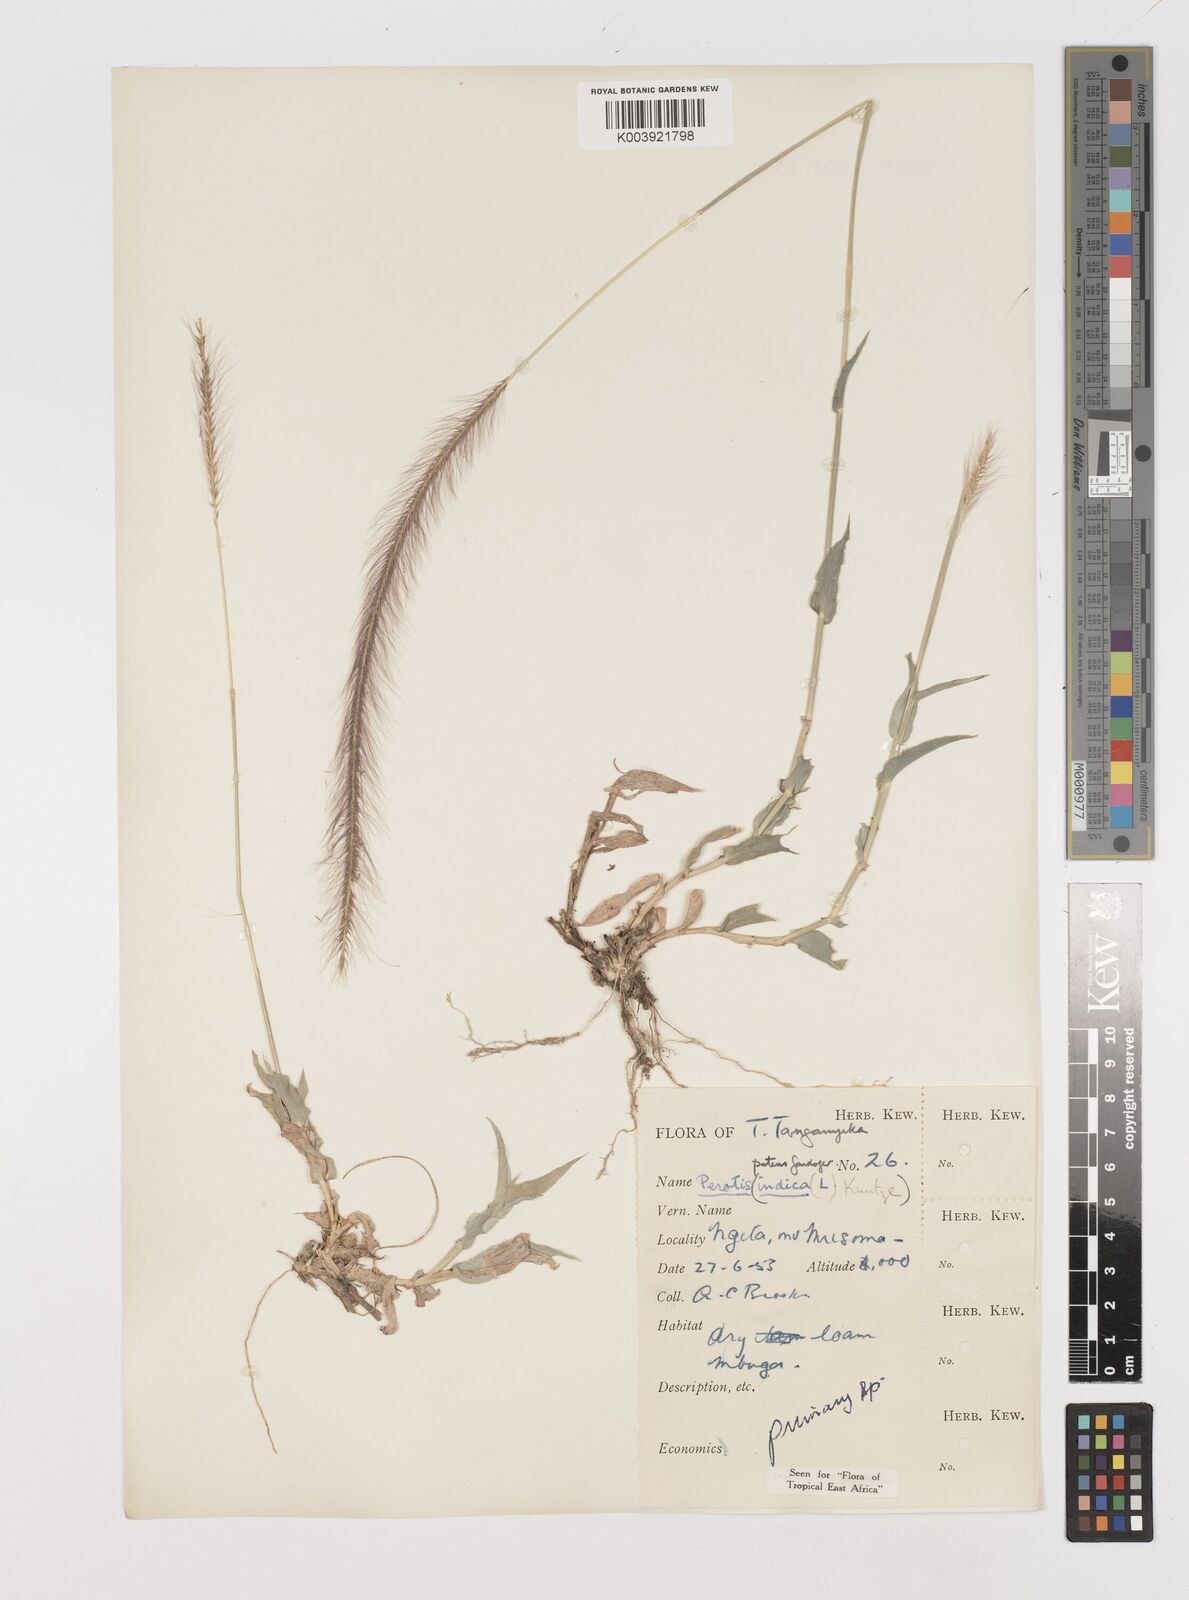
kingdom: Plantae
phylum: Tracheophyta
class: Liliopsida
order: Poales
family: Poaceae
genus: Perotis
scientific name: Perotis patens
